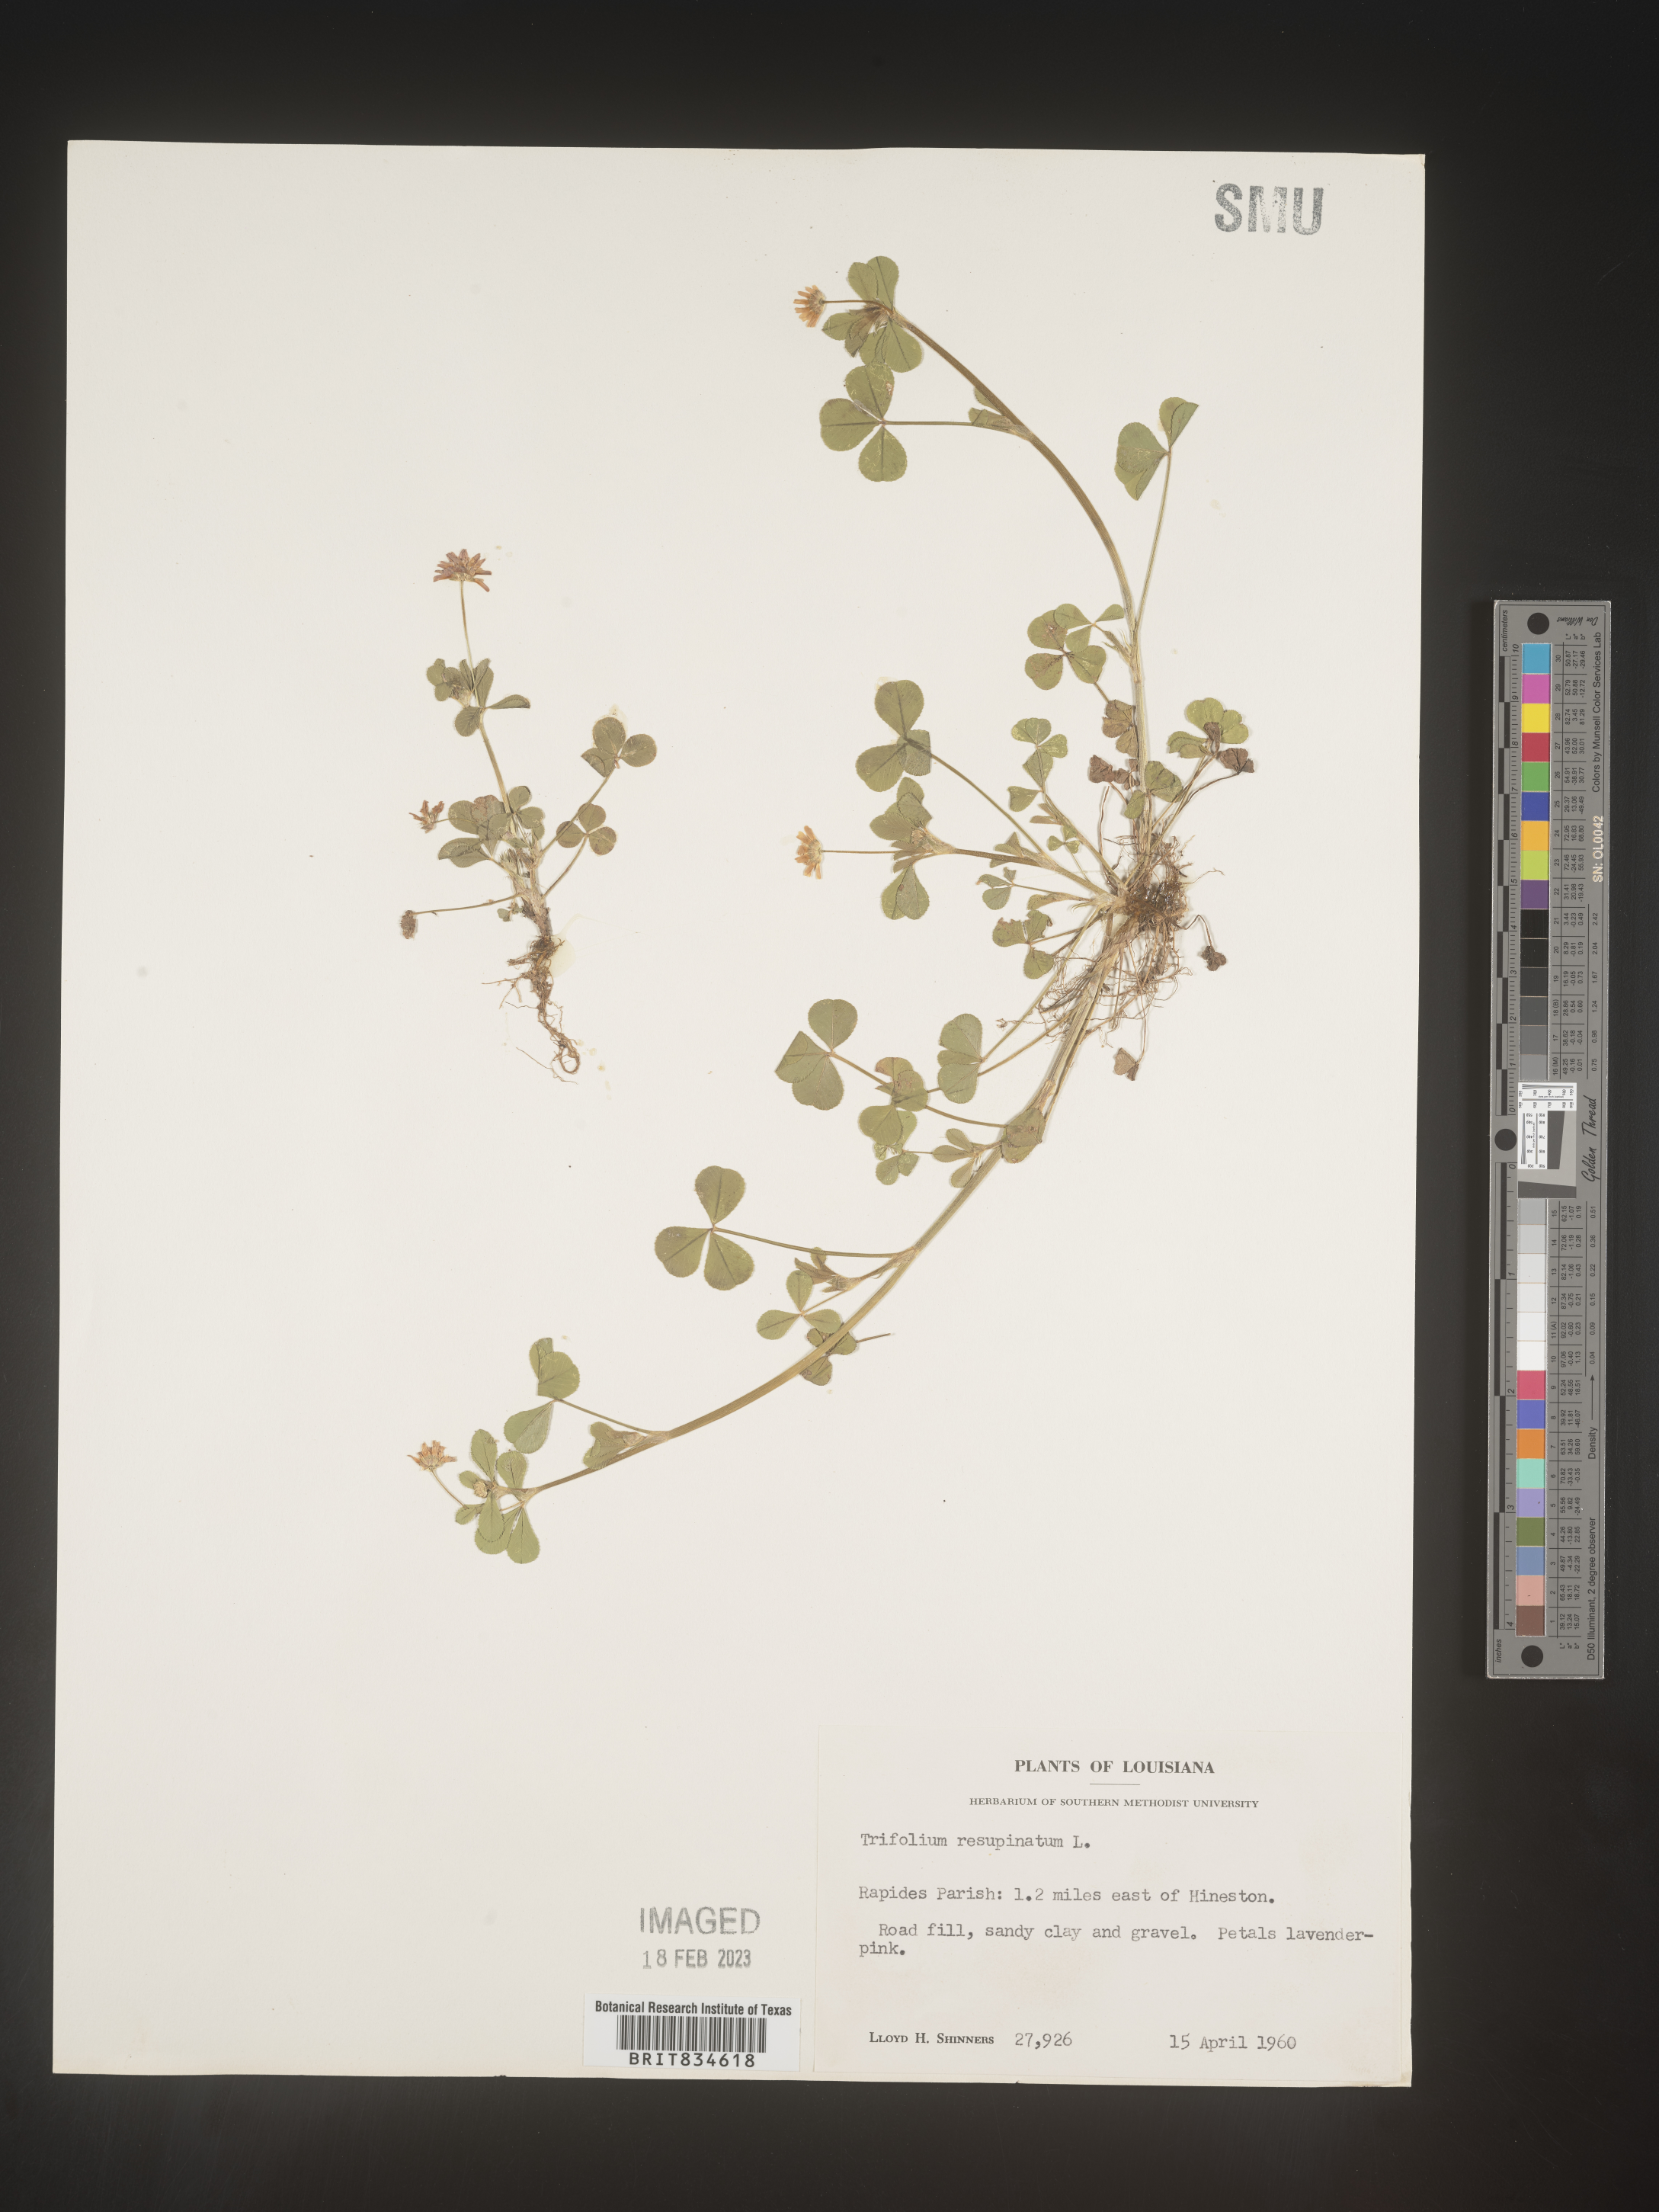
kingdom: Plantae
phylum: Tracheophyta
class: Magnoliopsida
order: Fabales
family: Fabaceae
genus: Trifolium
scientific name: Trifolium resupinatum
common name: Reversed clover
